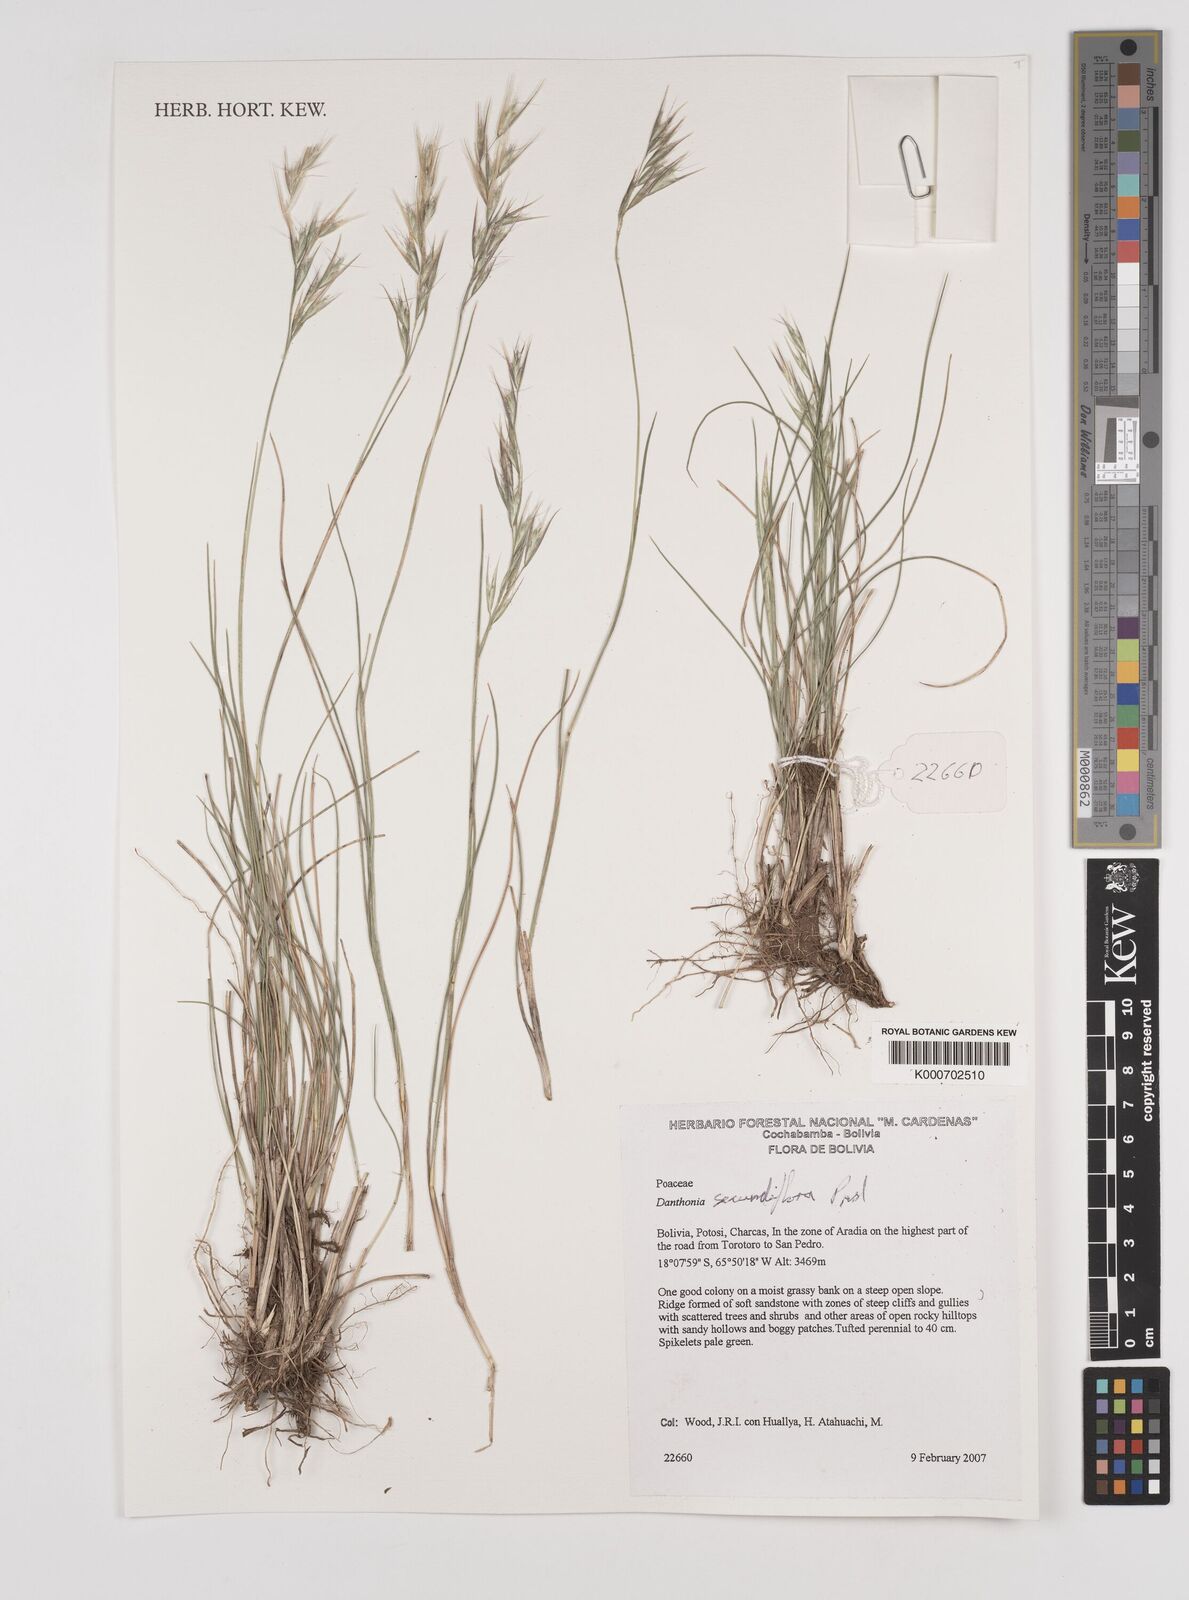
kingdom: Plantae
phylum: Tracheophyta
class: Liliopsida
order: Poales
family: Poaceae
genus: Danthonia
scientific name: Danthonia secundiflora
